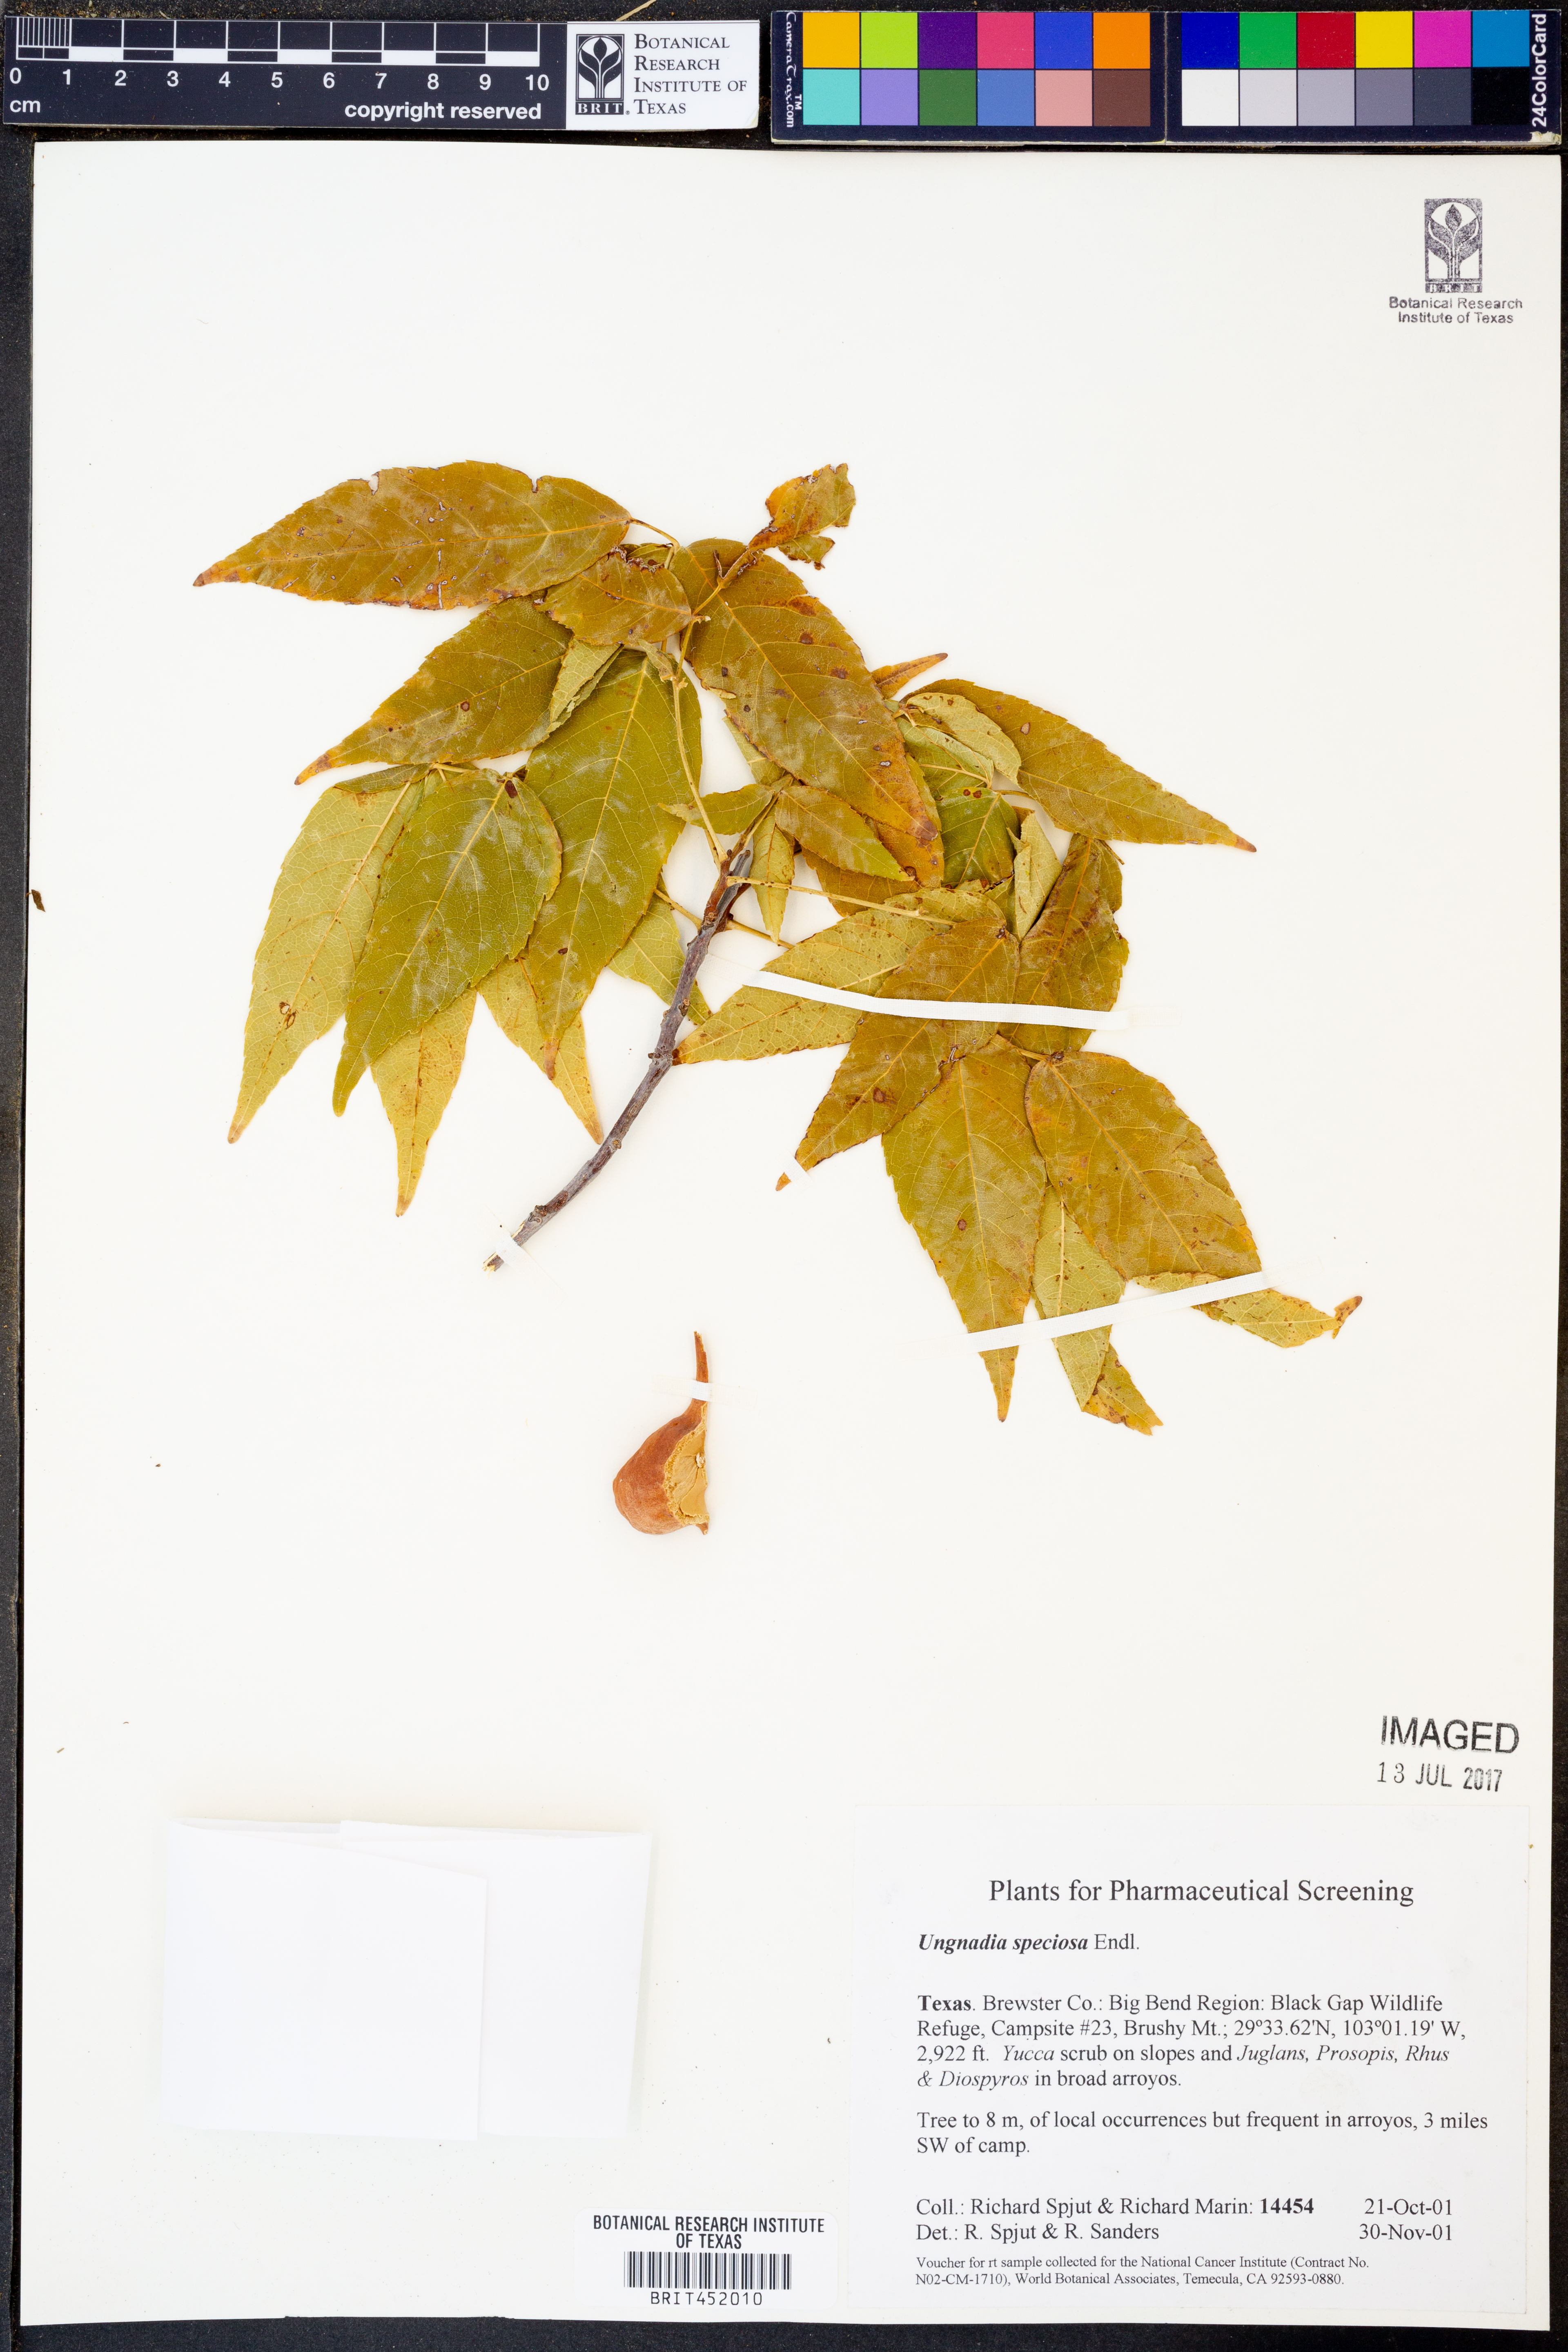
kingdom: Plantae
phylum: Tracheophyta
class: Magnoliopsida
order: Sapindales
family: Sapindaceae
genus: Ungnadia
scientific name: Ungnadia speciosa
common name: Texas-buckeye
